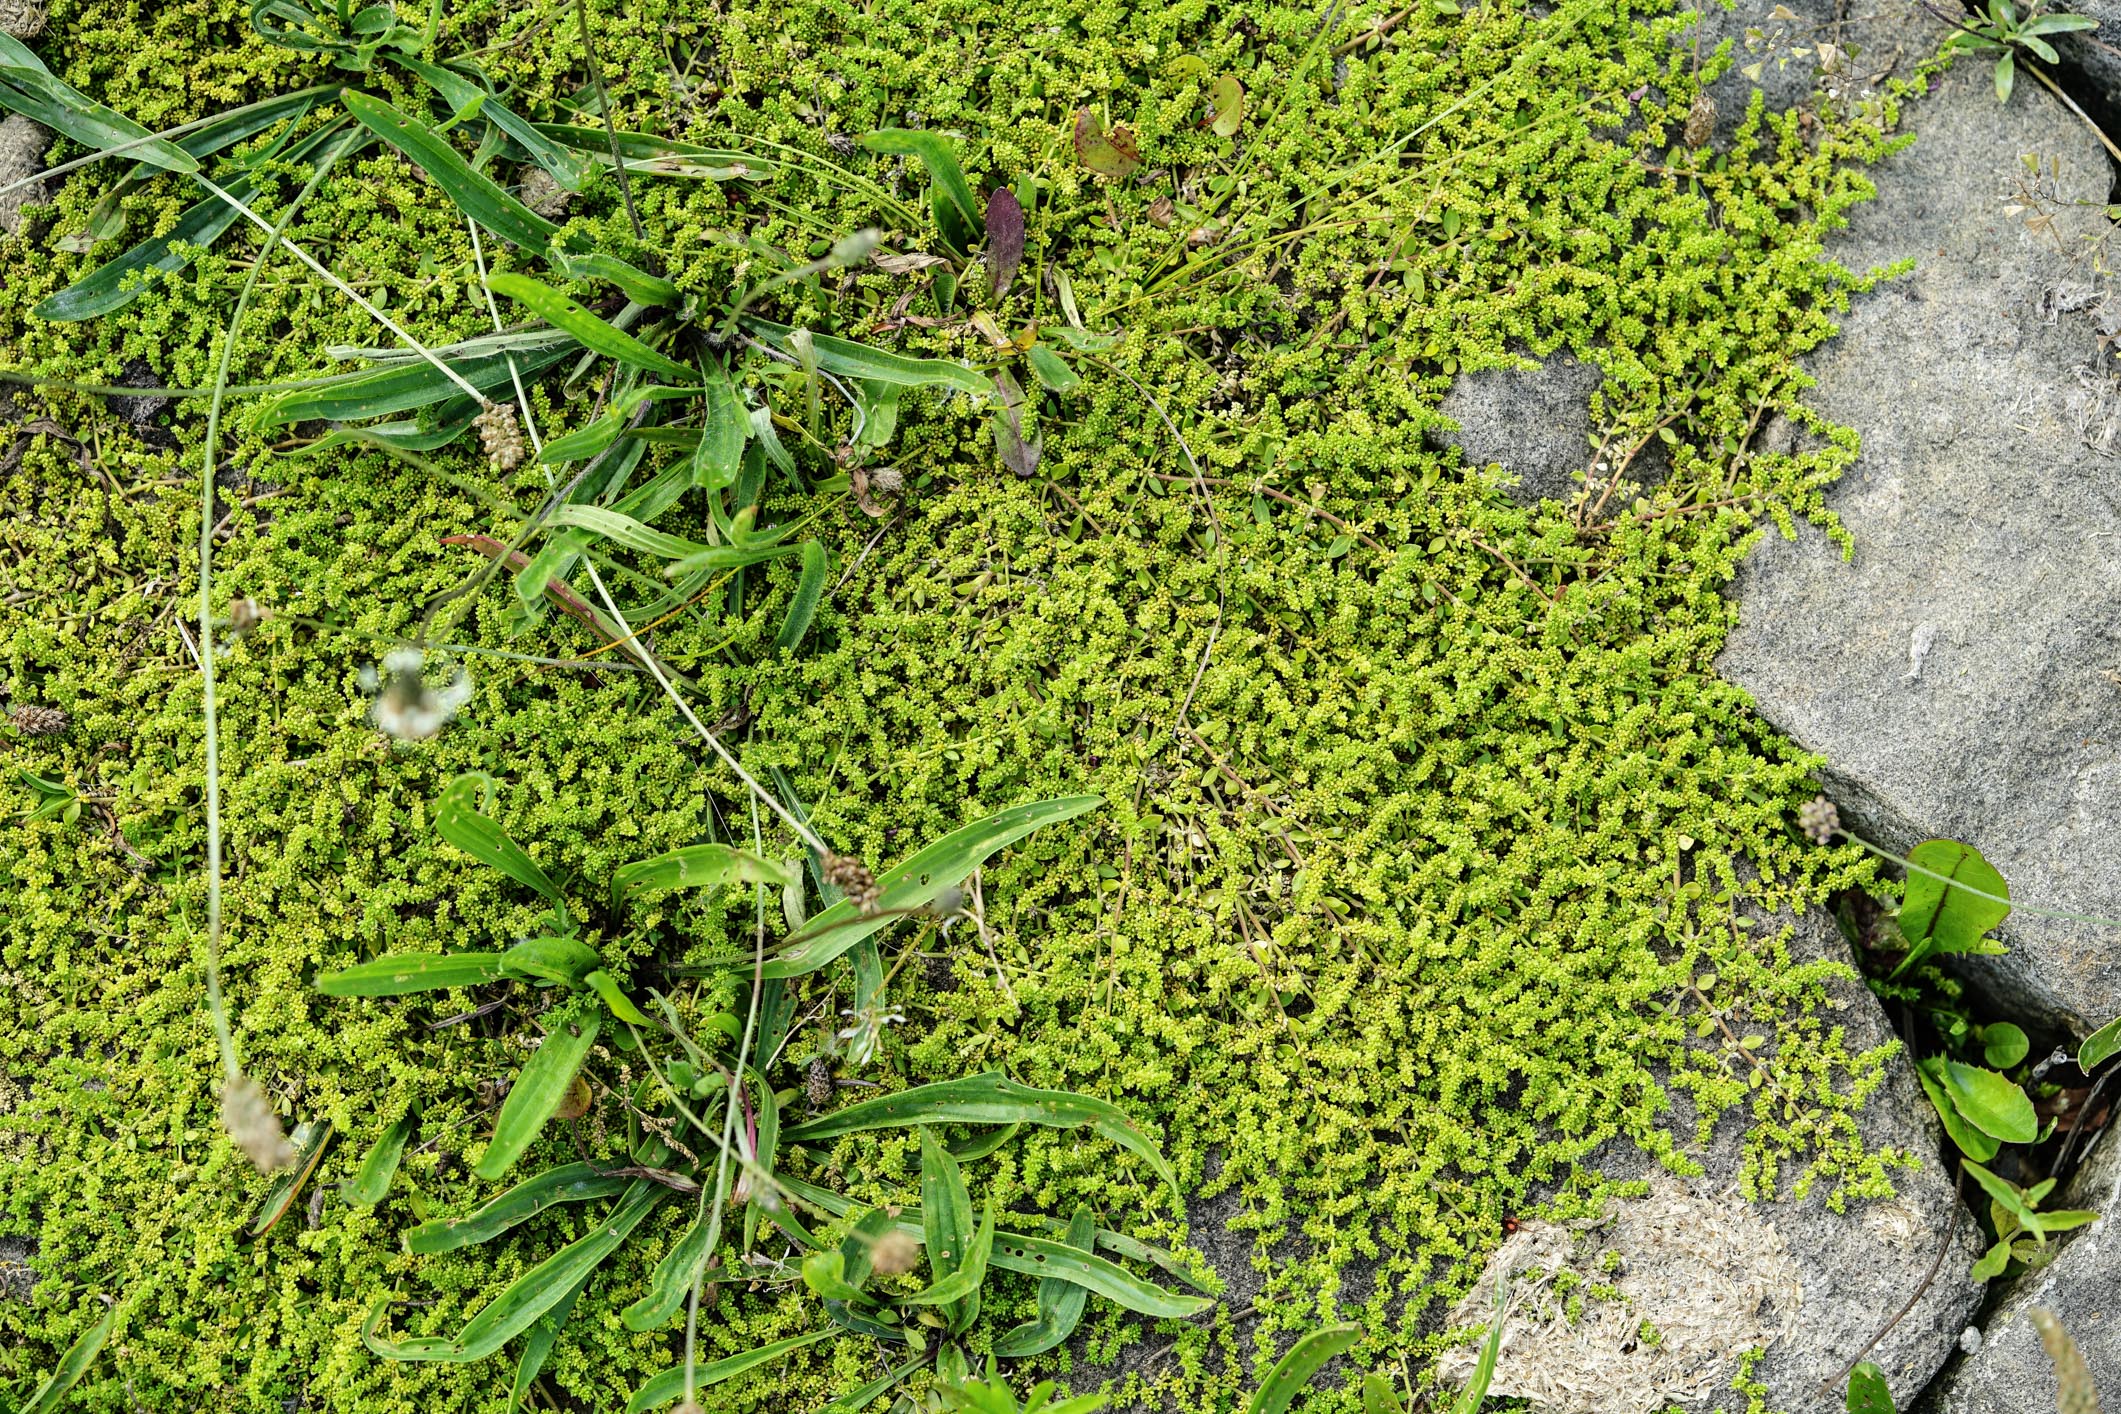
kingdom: Plantae
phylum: Tracheophyta
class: Magnoliopsida
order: Caryophyllales
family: Caryophyllaceae
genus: Herniaria
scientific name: Herniaria hirsuta
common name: Hairy rupturewort
